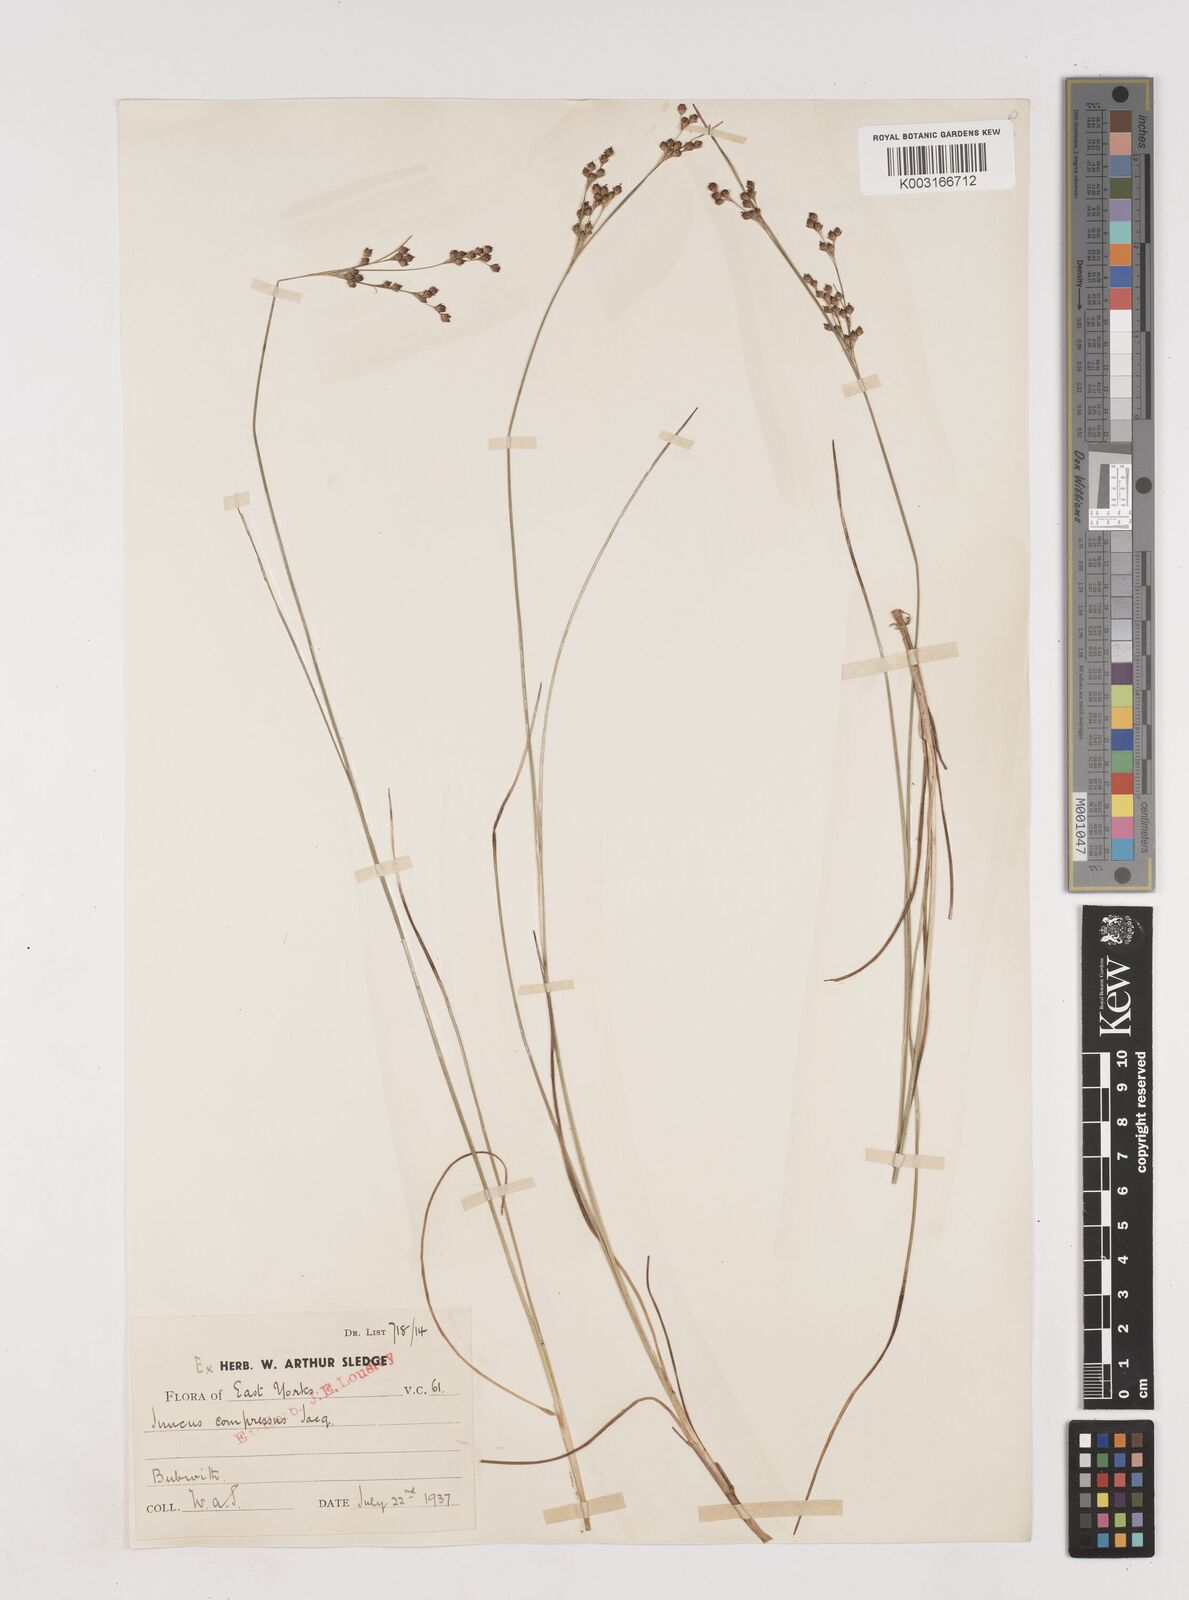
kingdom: Plantae
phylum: Tracheophyta
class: Liliopsida
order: Poales
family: Juncaceae
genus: Juncus
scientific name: Juncus compressus
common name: Round-fruited rush
